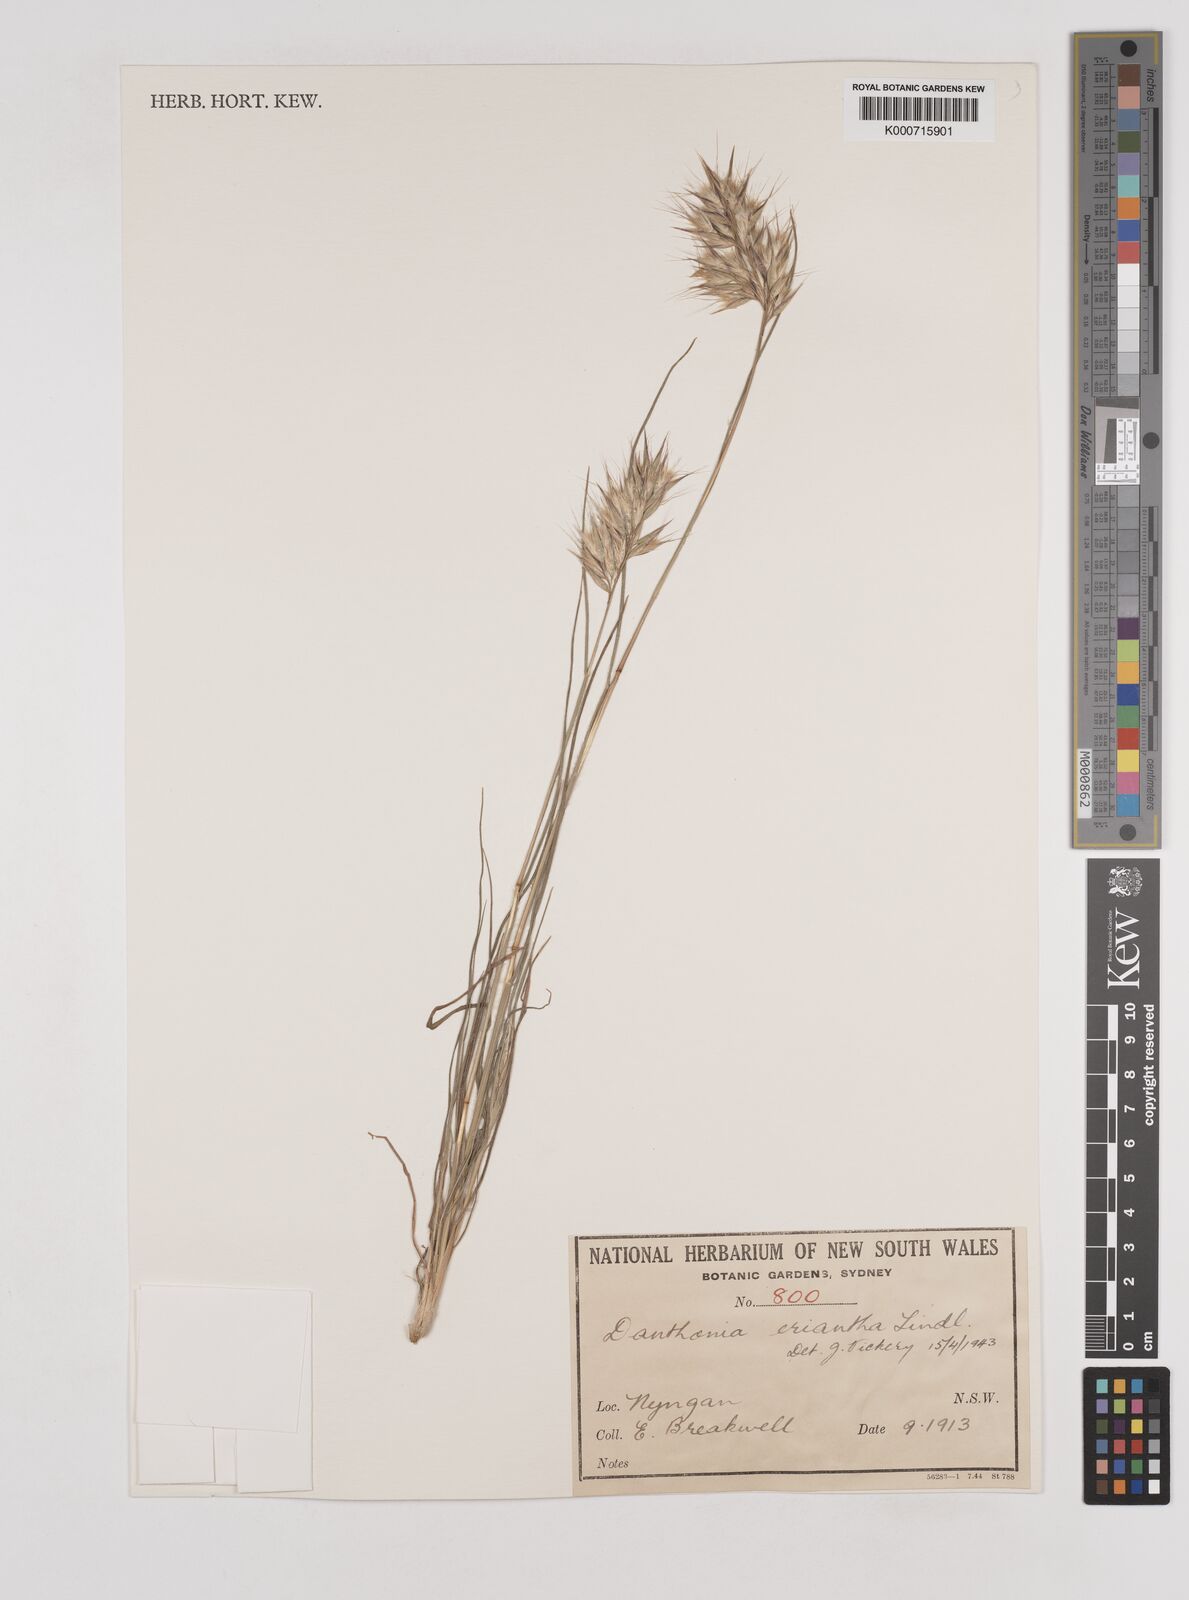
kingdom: Plantae
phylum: Tracheophyta
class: Liliopsida
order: Poales
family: Poaceae
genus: Rytidosperma
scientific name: Rytidosperma erianthum
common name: Hill wallaby grass
